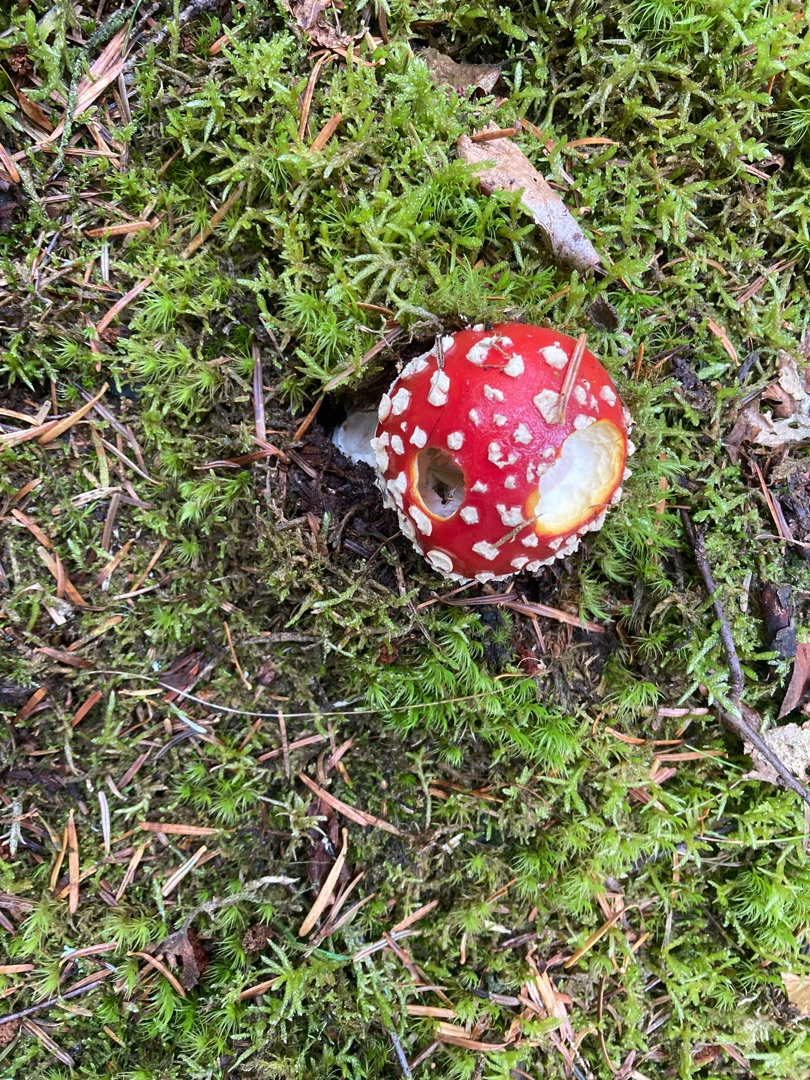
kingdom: Fungi
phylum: Basidiomycota
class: Agaricomycetes
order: Agaricales
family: Amanitaceae
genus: Amanita
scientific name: Amanita muscaria
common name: Rød fluesvamp
